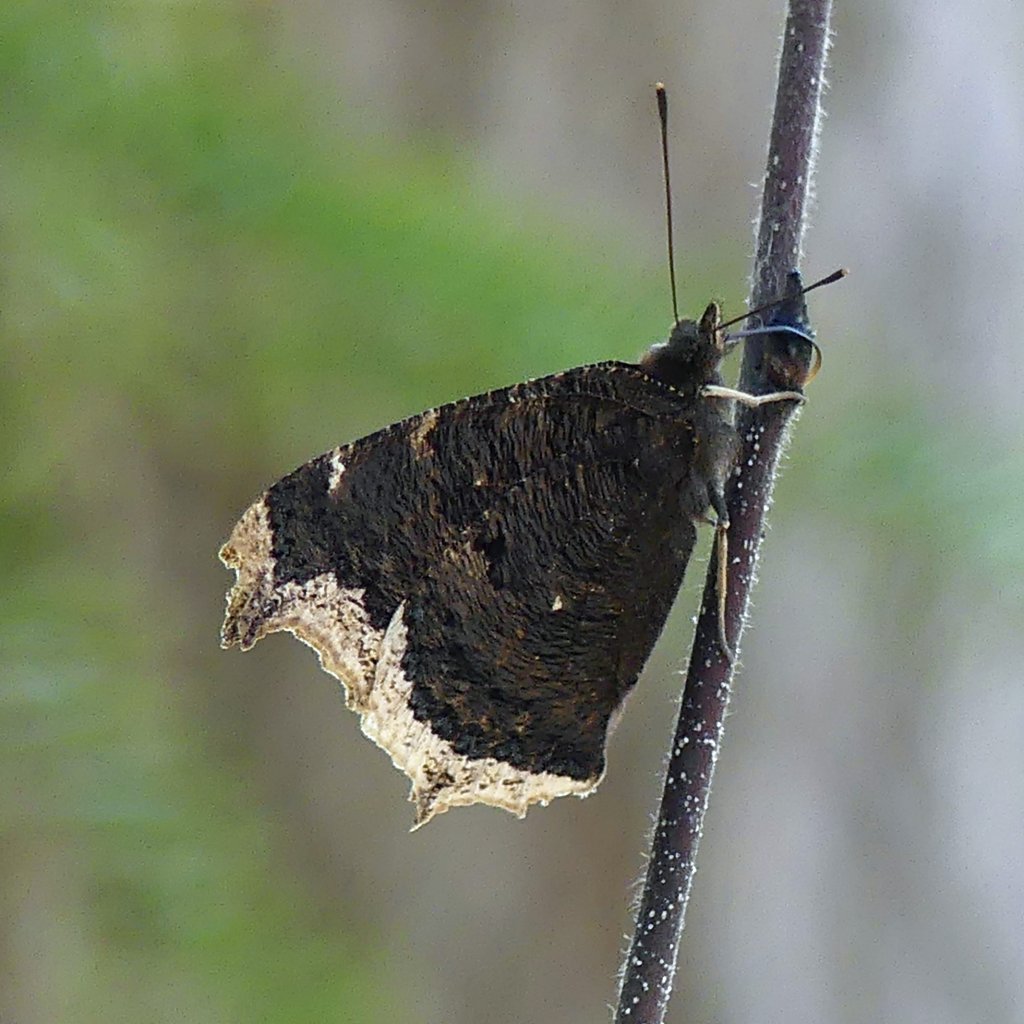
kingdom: Animalia
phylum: Arthropoda
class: Insecta
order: Lepidoptera
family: Nymphalidae
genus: Nymphalis
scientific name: Nymphalis antiopa
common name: Mourning Cloak
